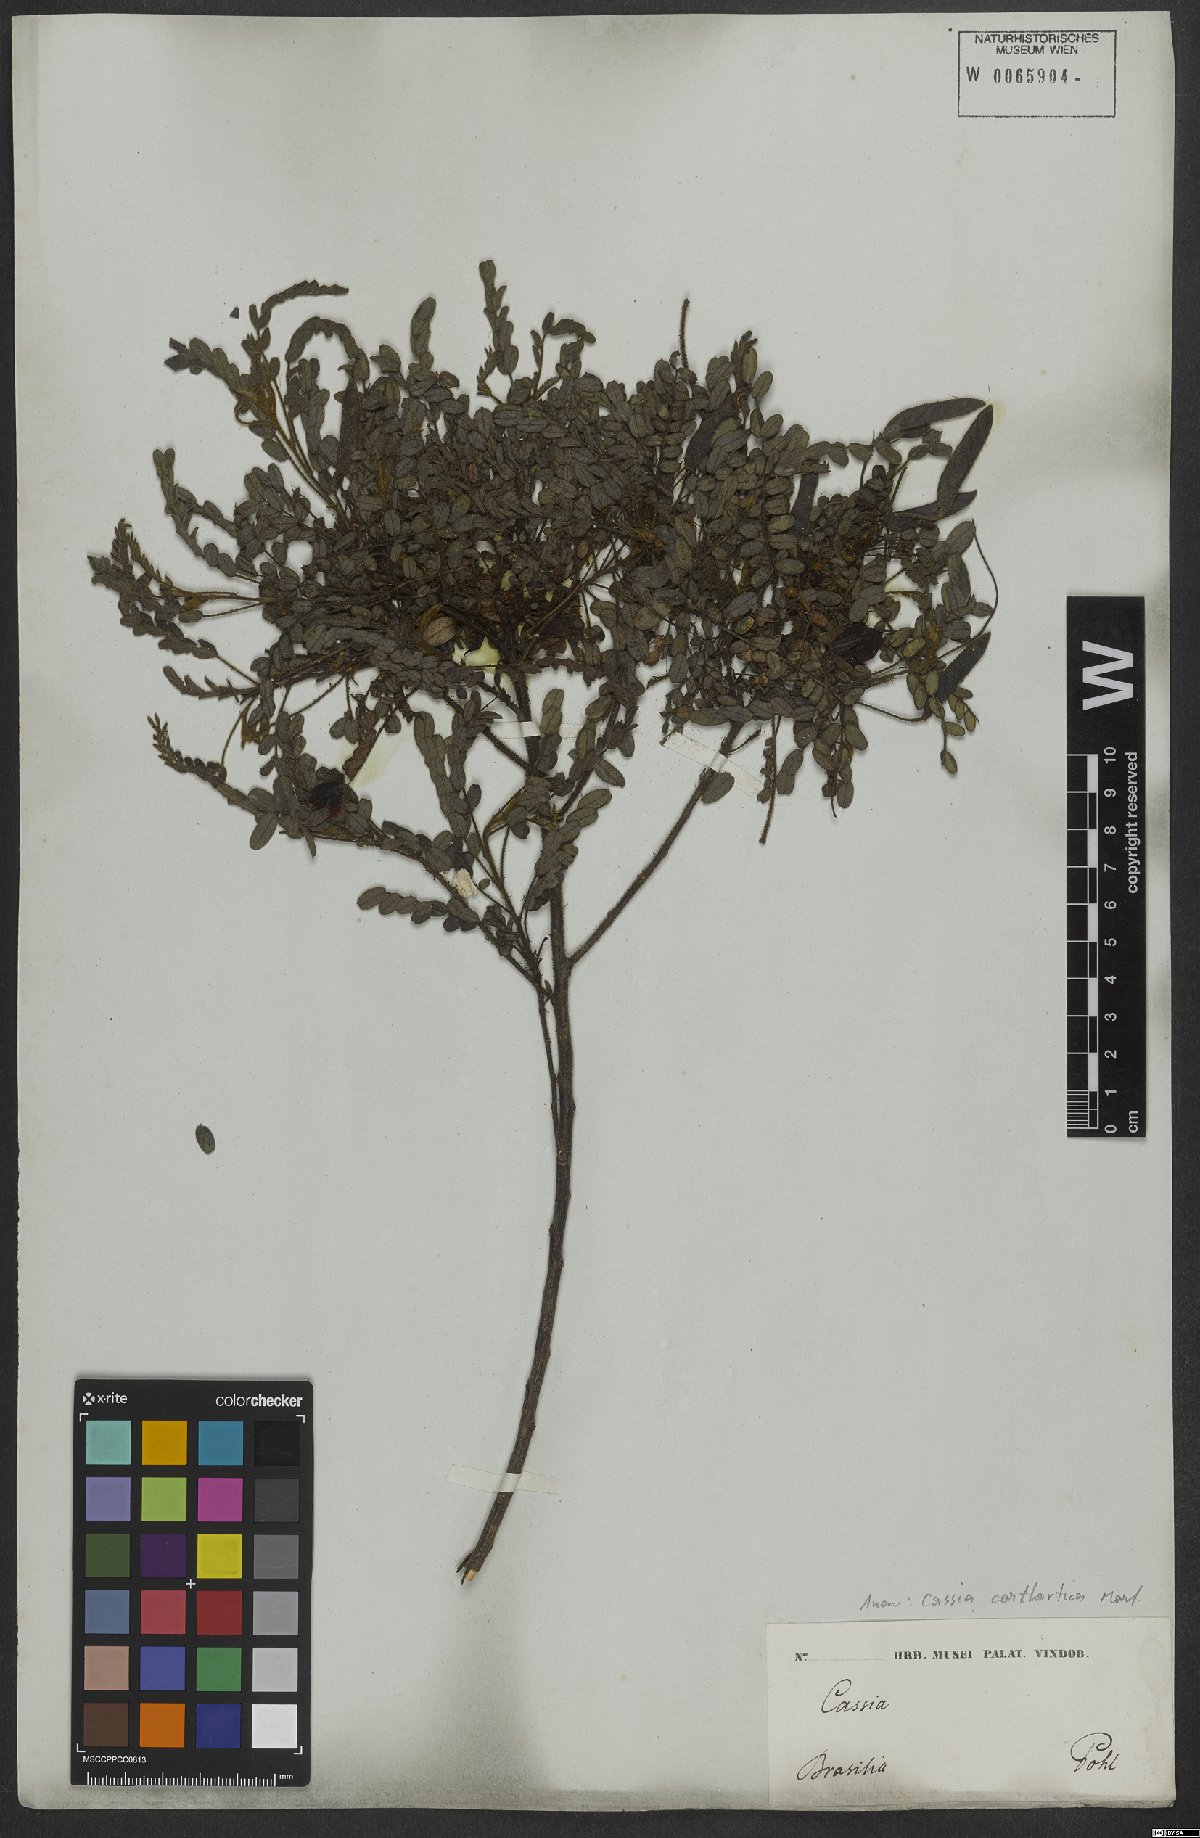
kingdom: Plantae
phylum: Tracheophyta
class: Magnoliopsida
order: Fabales
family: Fabaceae
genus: Chamaecrista
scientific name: Chamaecrista cathartica
